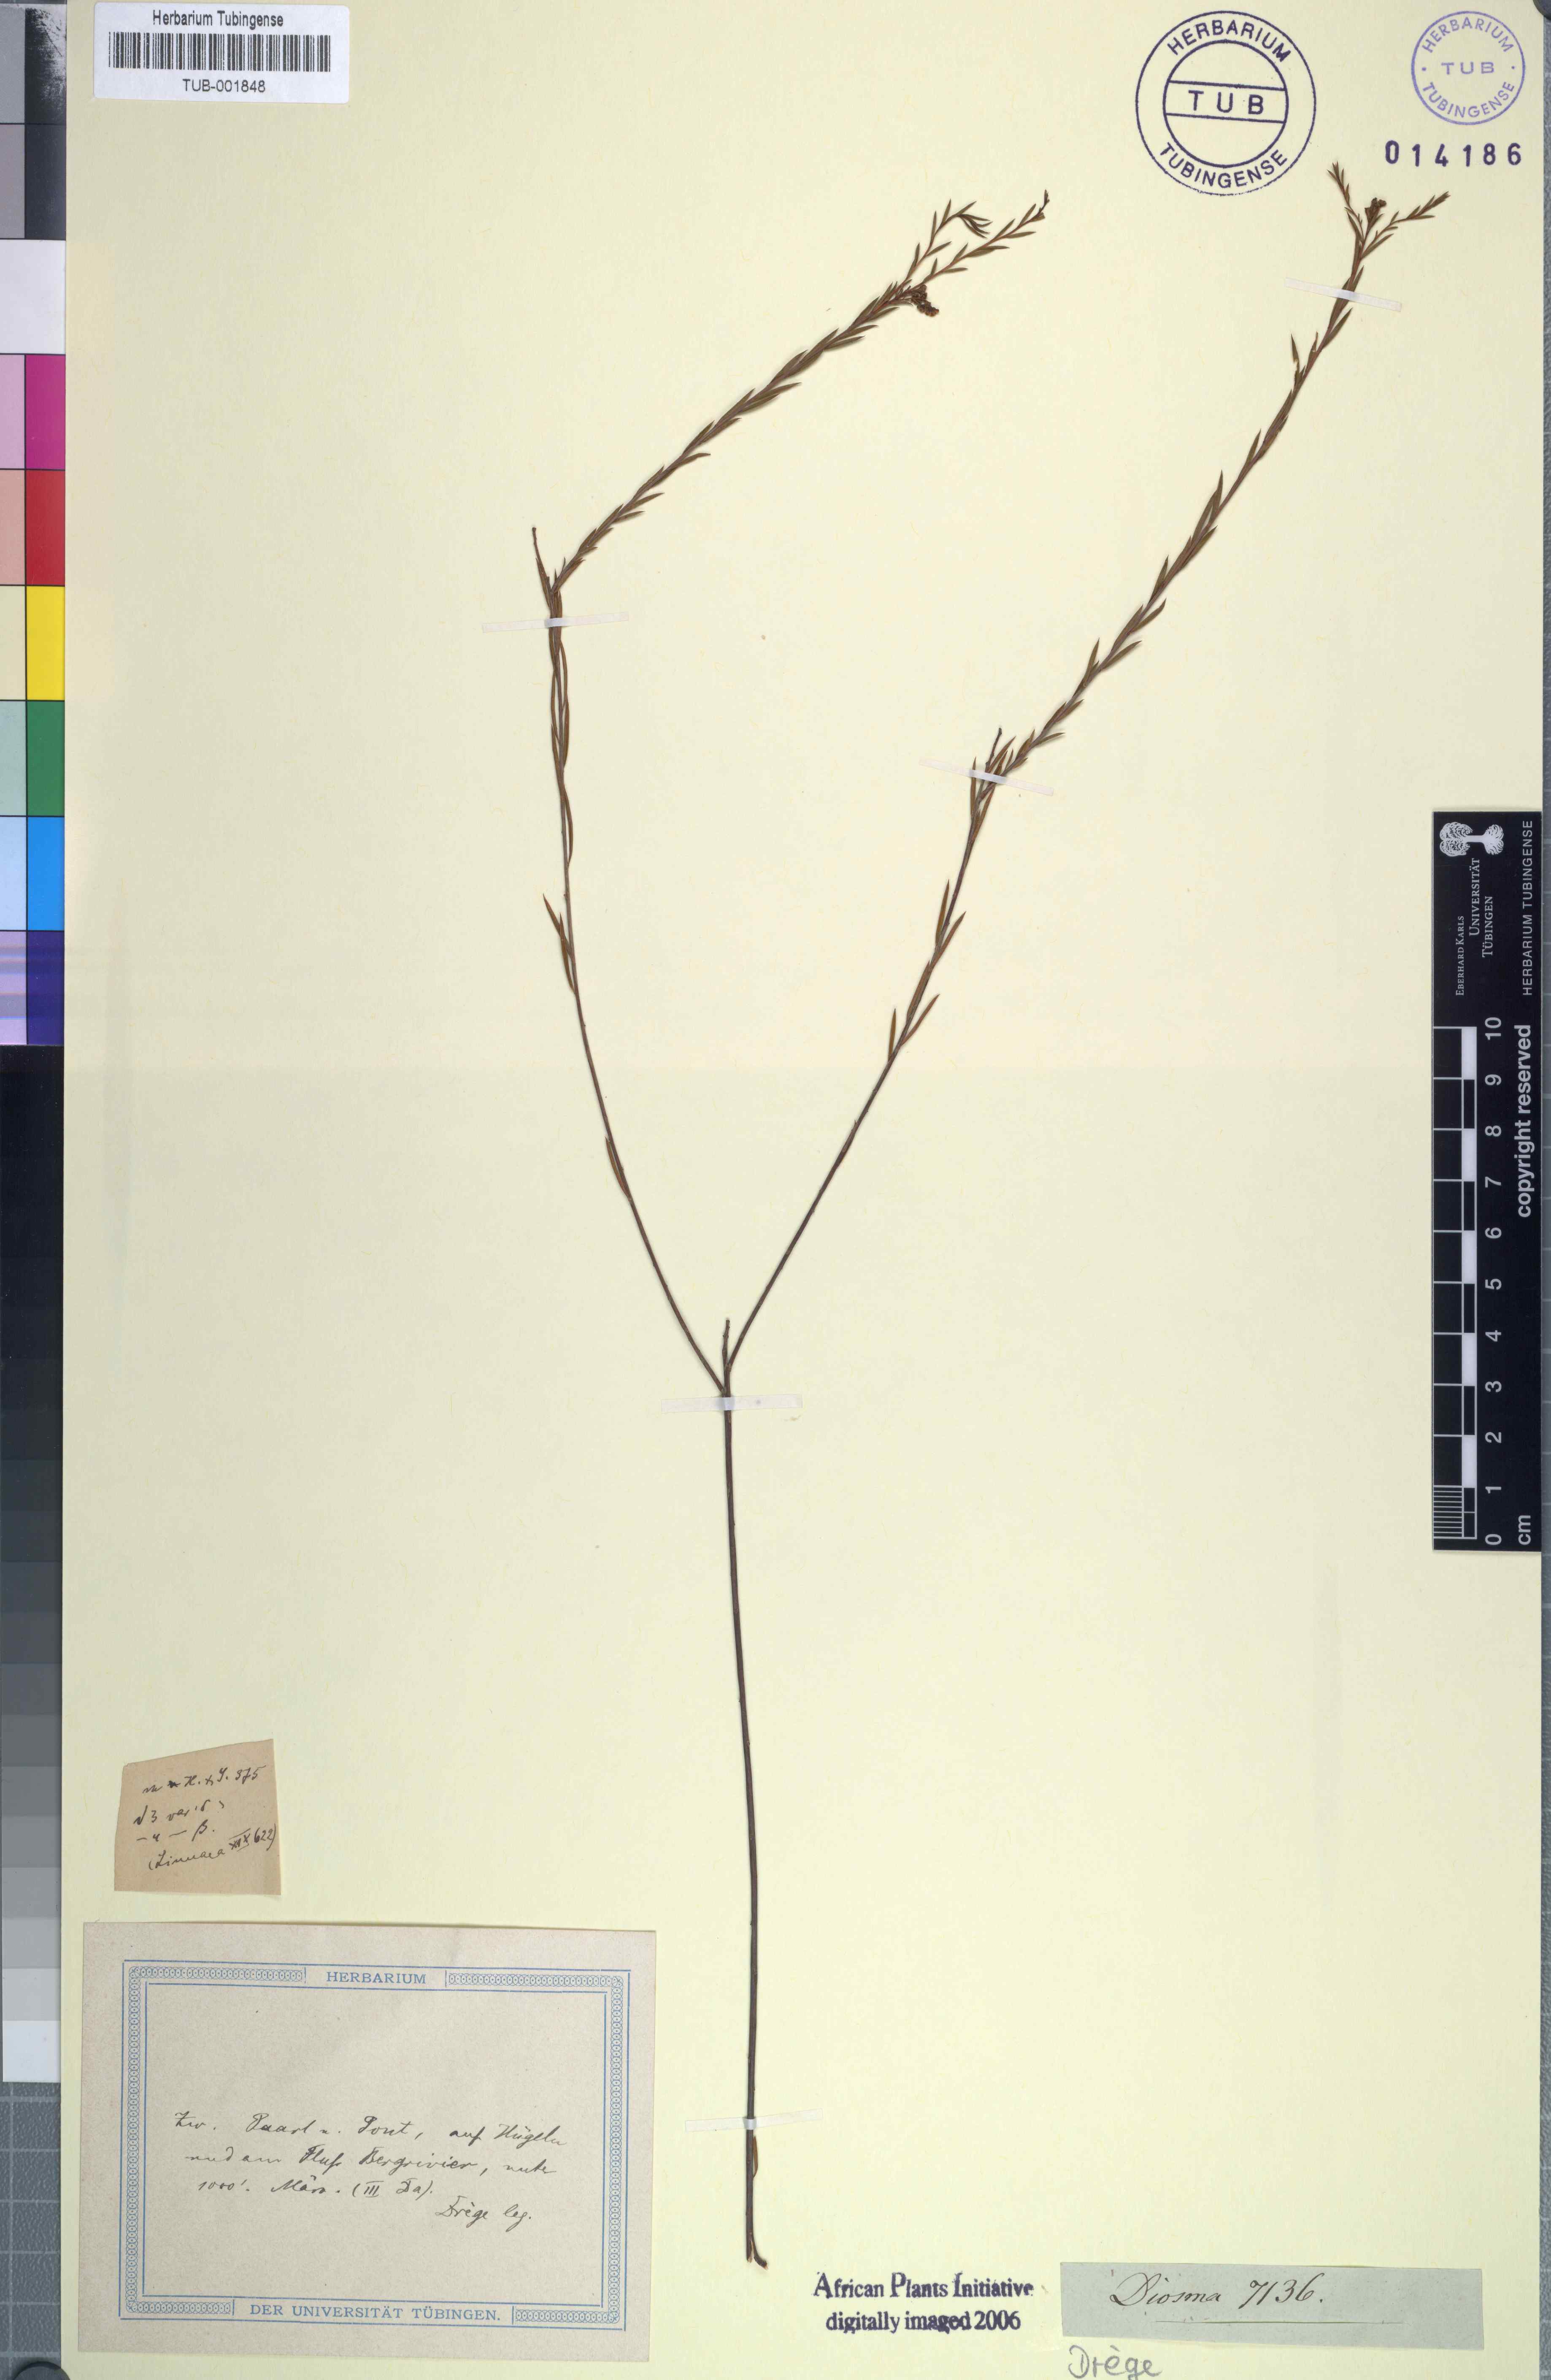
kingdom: Plantae
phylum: Tracheophyta
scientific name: Tracheophyta
